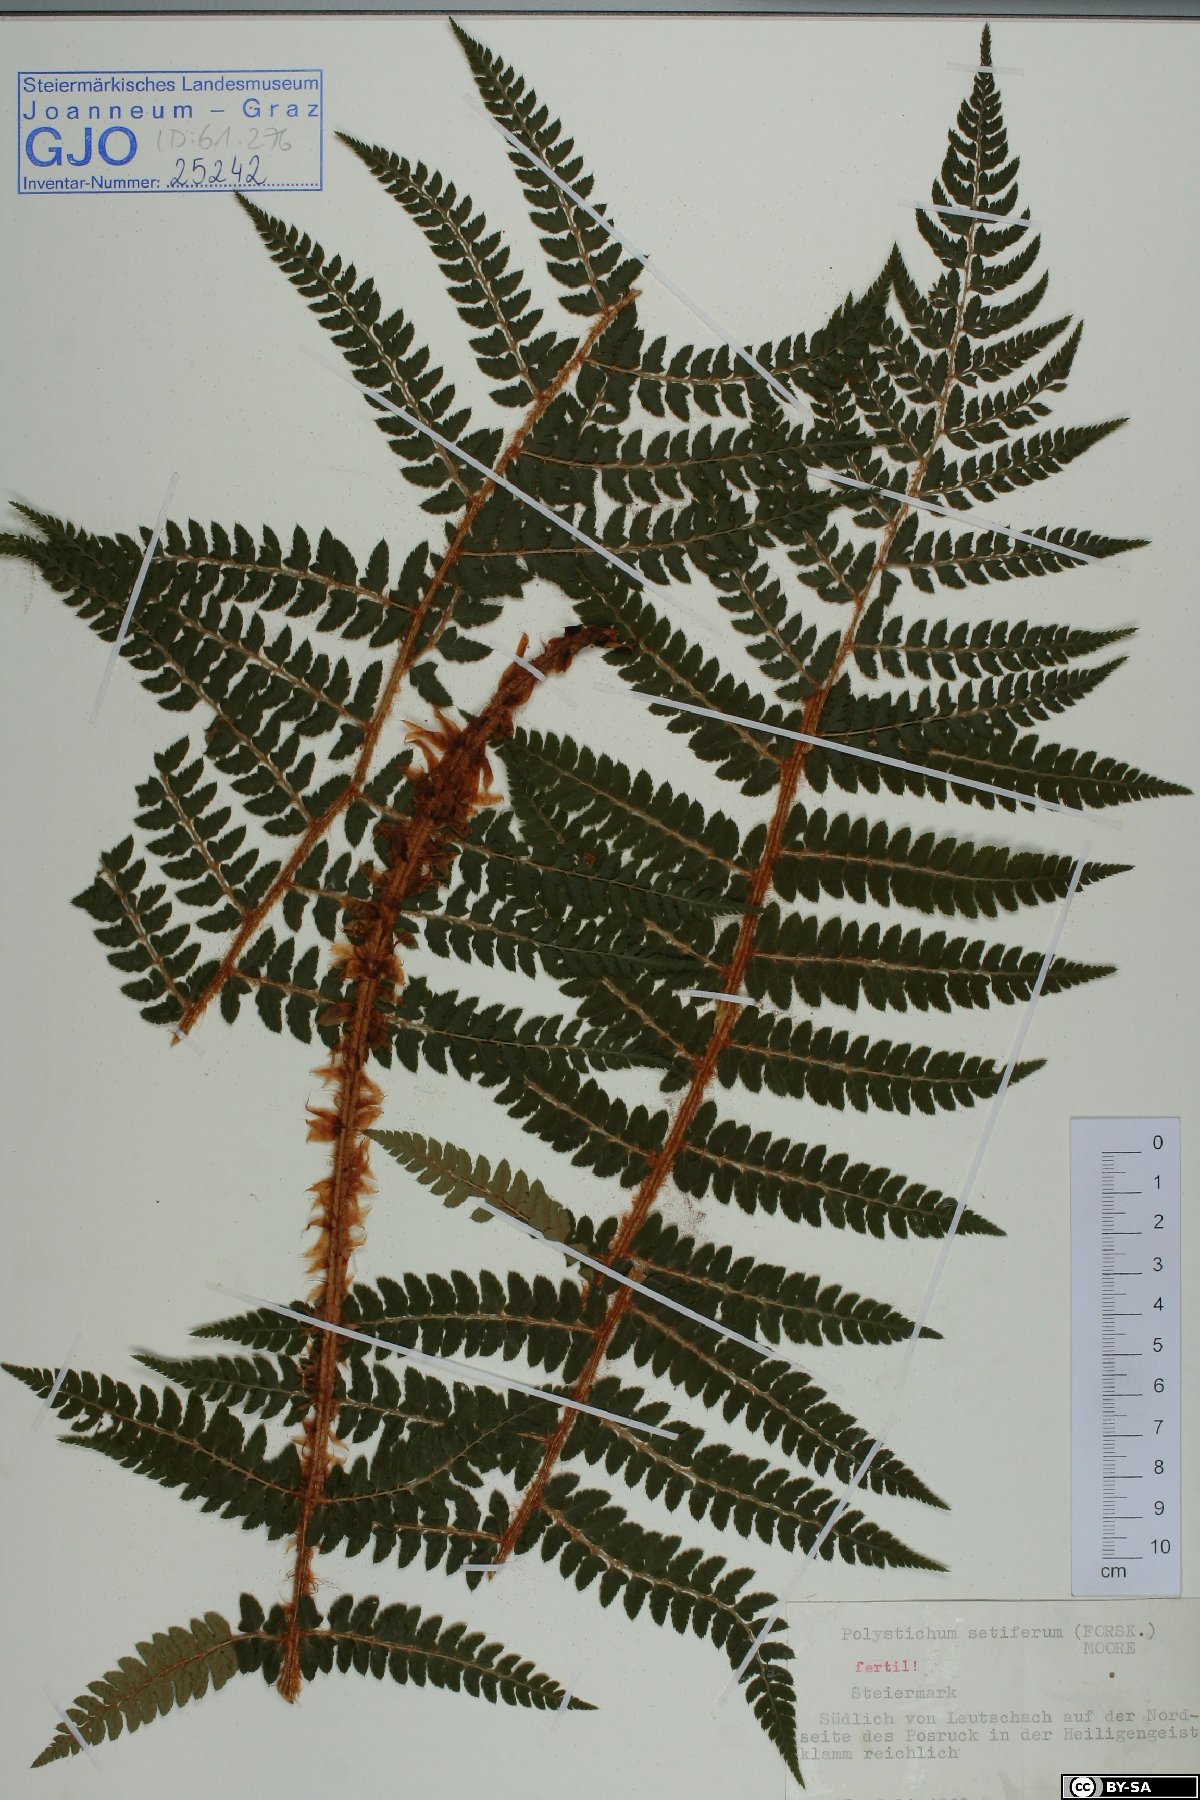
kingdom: Plantae
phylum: Tracheophyta
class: Polypodiopsida
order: Polypodiales
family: Dryopteridaceae
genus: Polystichum
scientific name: Polystichum setiferum
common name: Soft shield-fern
